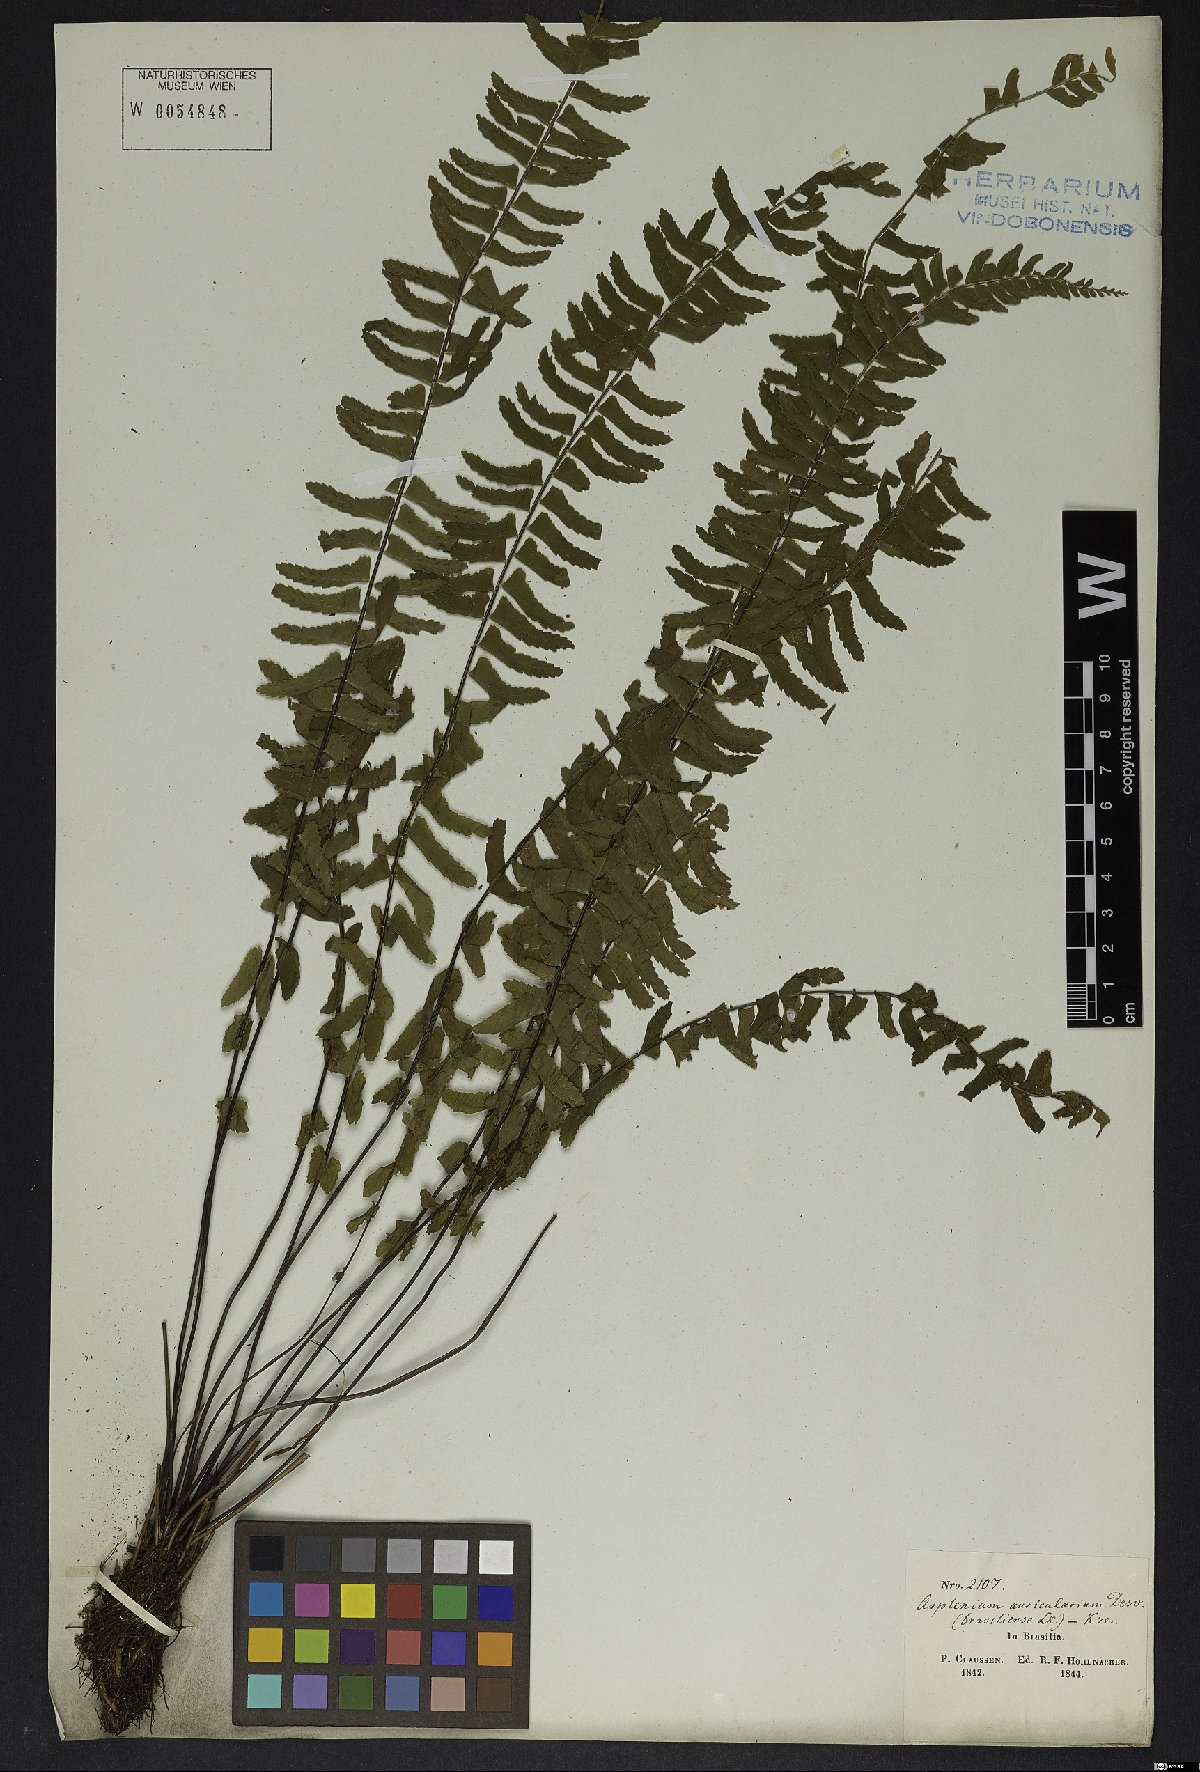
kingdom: Plantae
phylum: Tracheophyta
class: Polypodiopsida
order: Polypodiales
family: Aspleniaceae
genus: Asplenium
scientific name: Asplenium lunulatum
